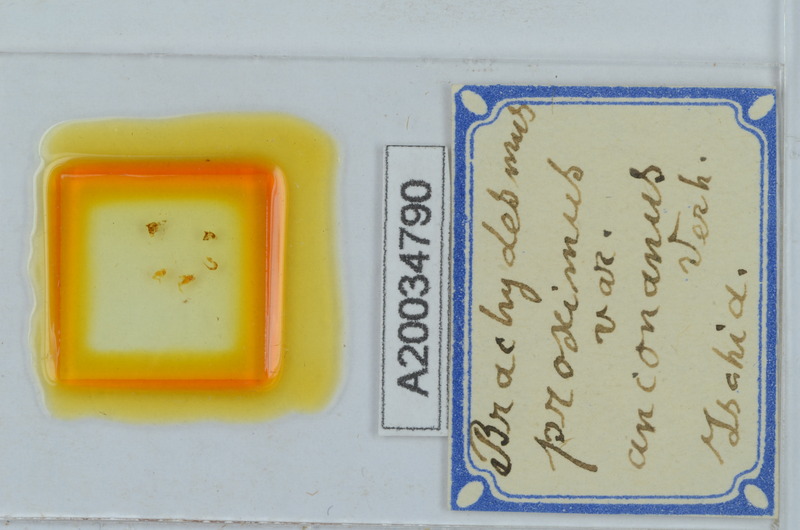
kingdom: Animalia
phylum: Arthropoda
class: Diplopoda
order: Polydesmida
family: Polydesmidae
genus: Brachydesmus
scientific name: Brachydesmus proximus
